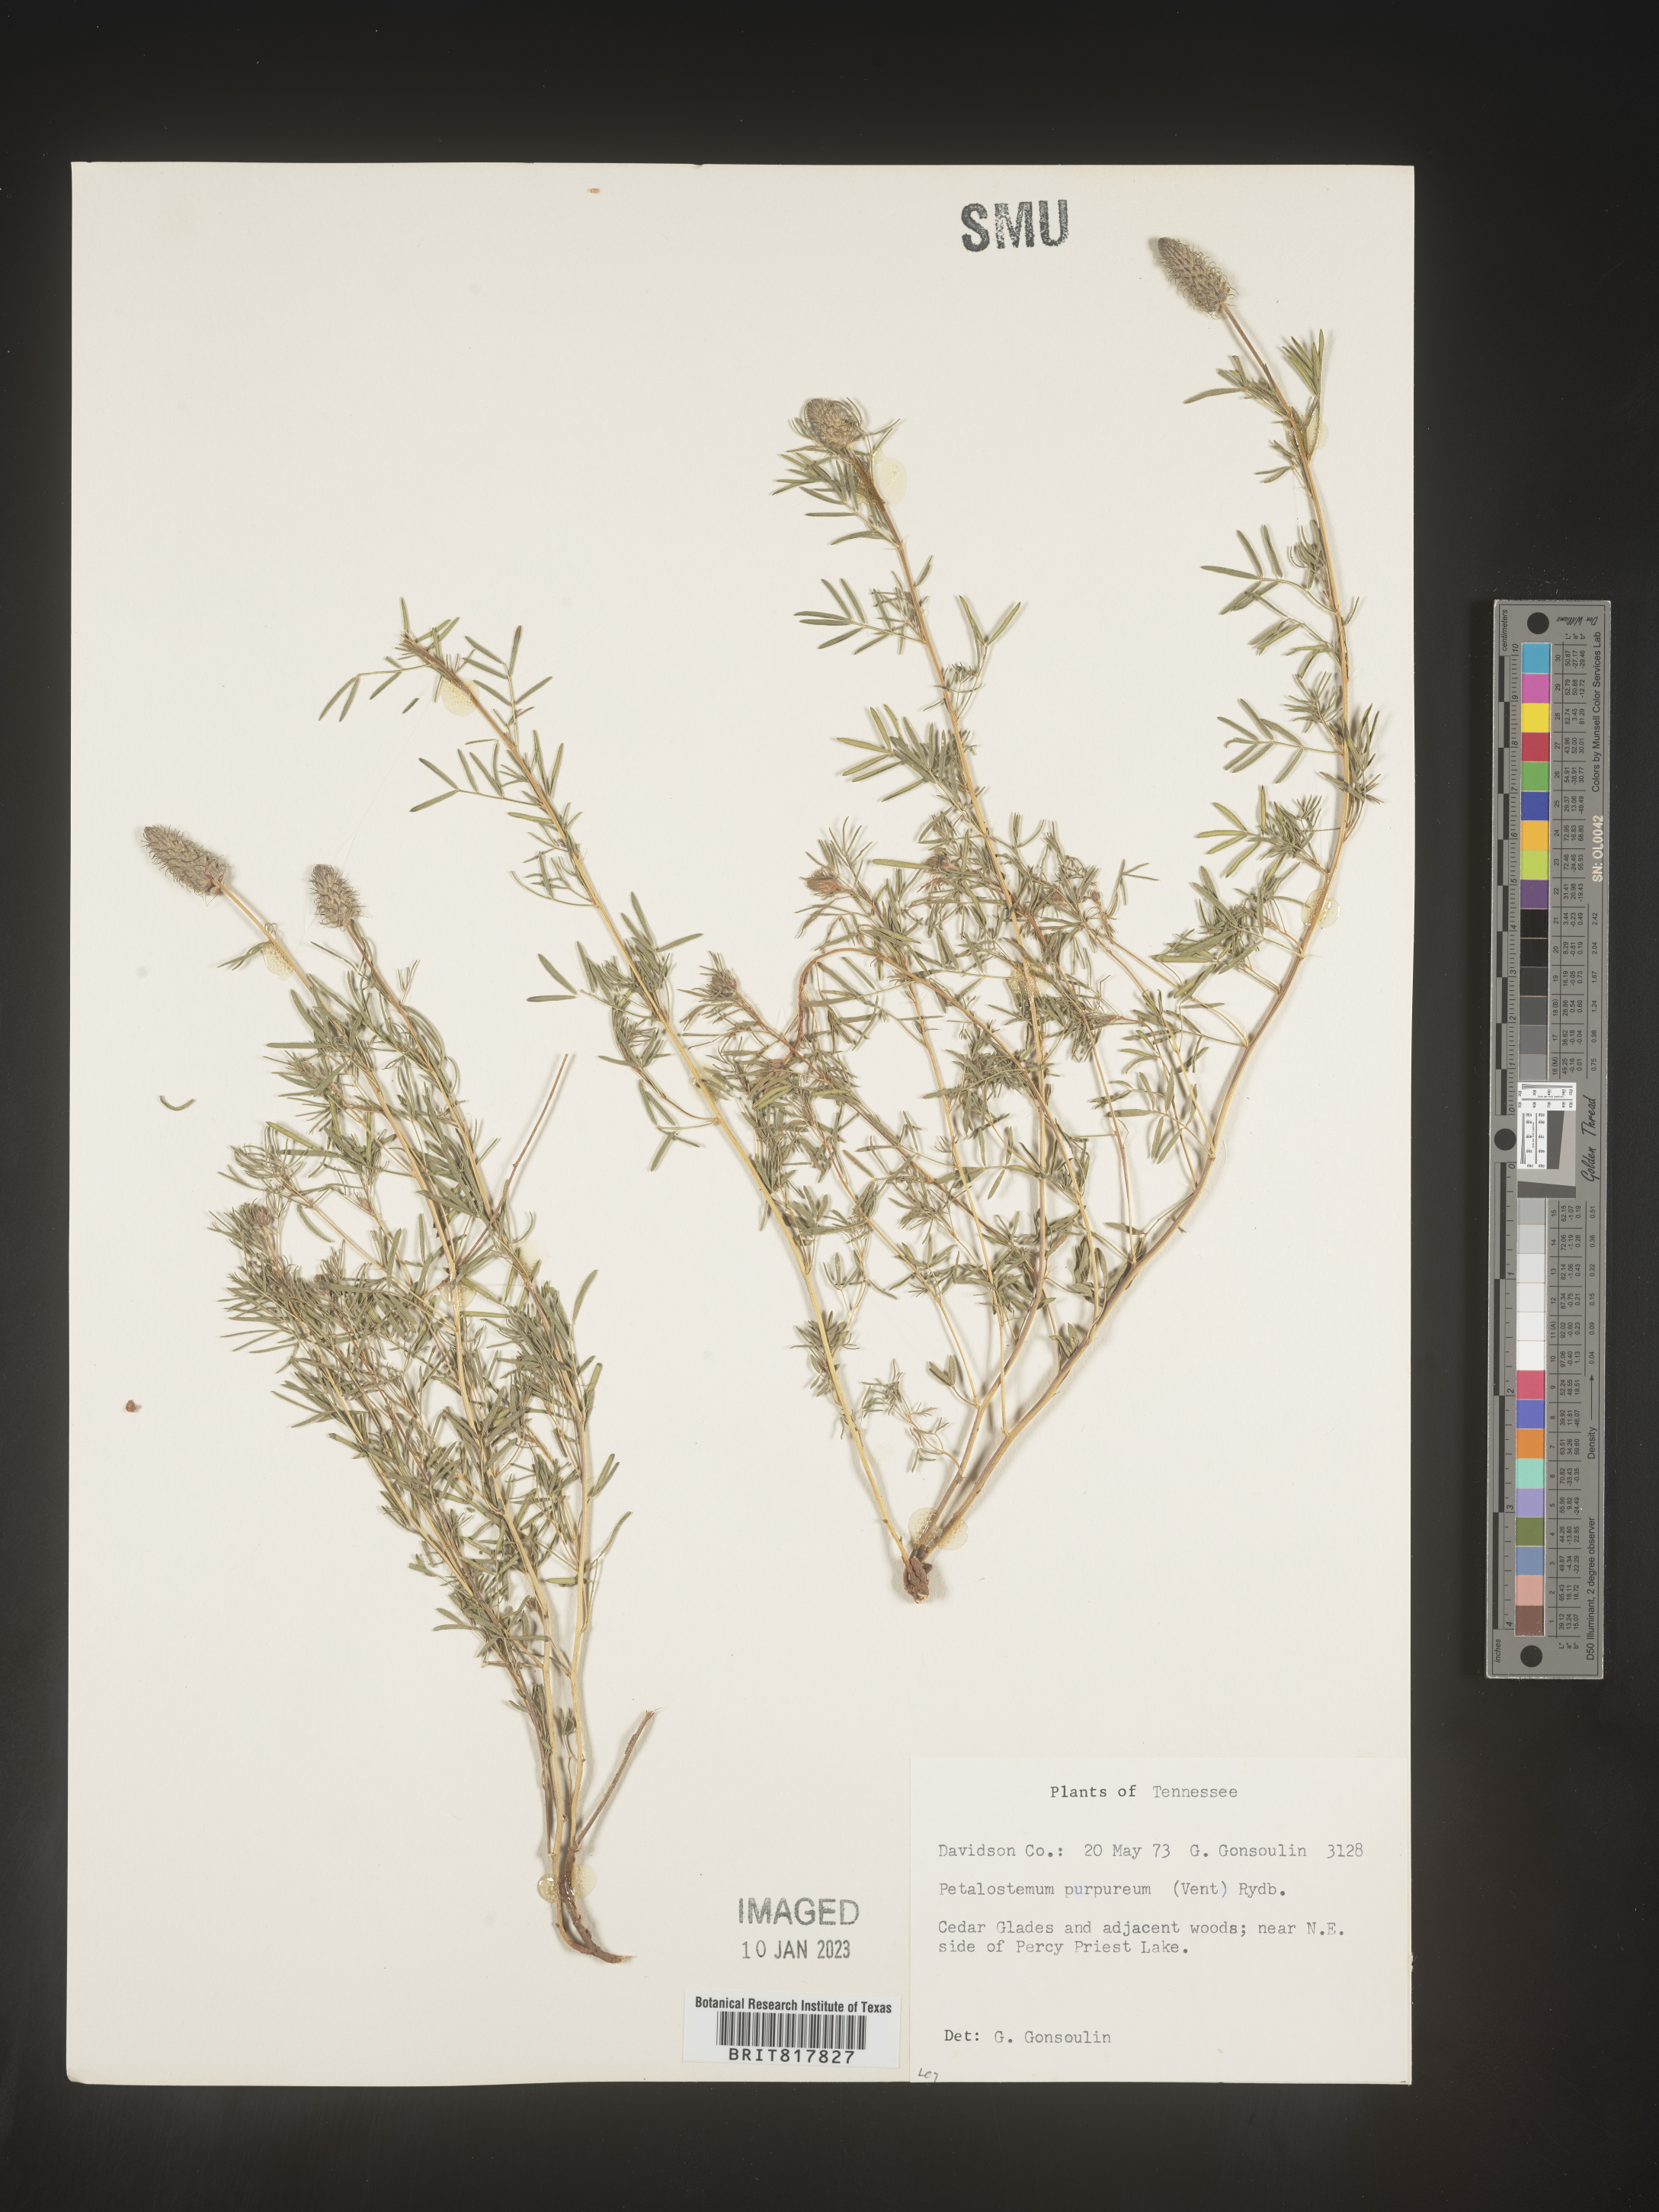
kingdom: Plantae
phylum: Tracheophyta
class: Magnoliopsida
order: Fabales
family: Fabaceae
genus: Dalea
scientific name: Dalea purpurea
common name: Purple prairie-clover
